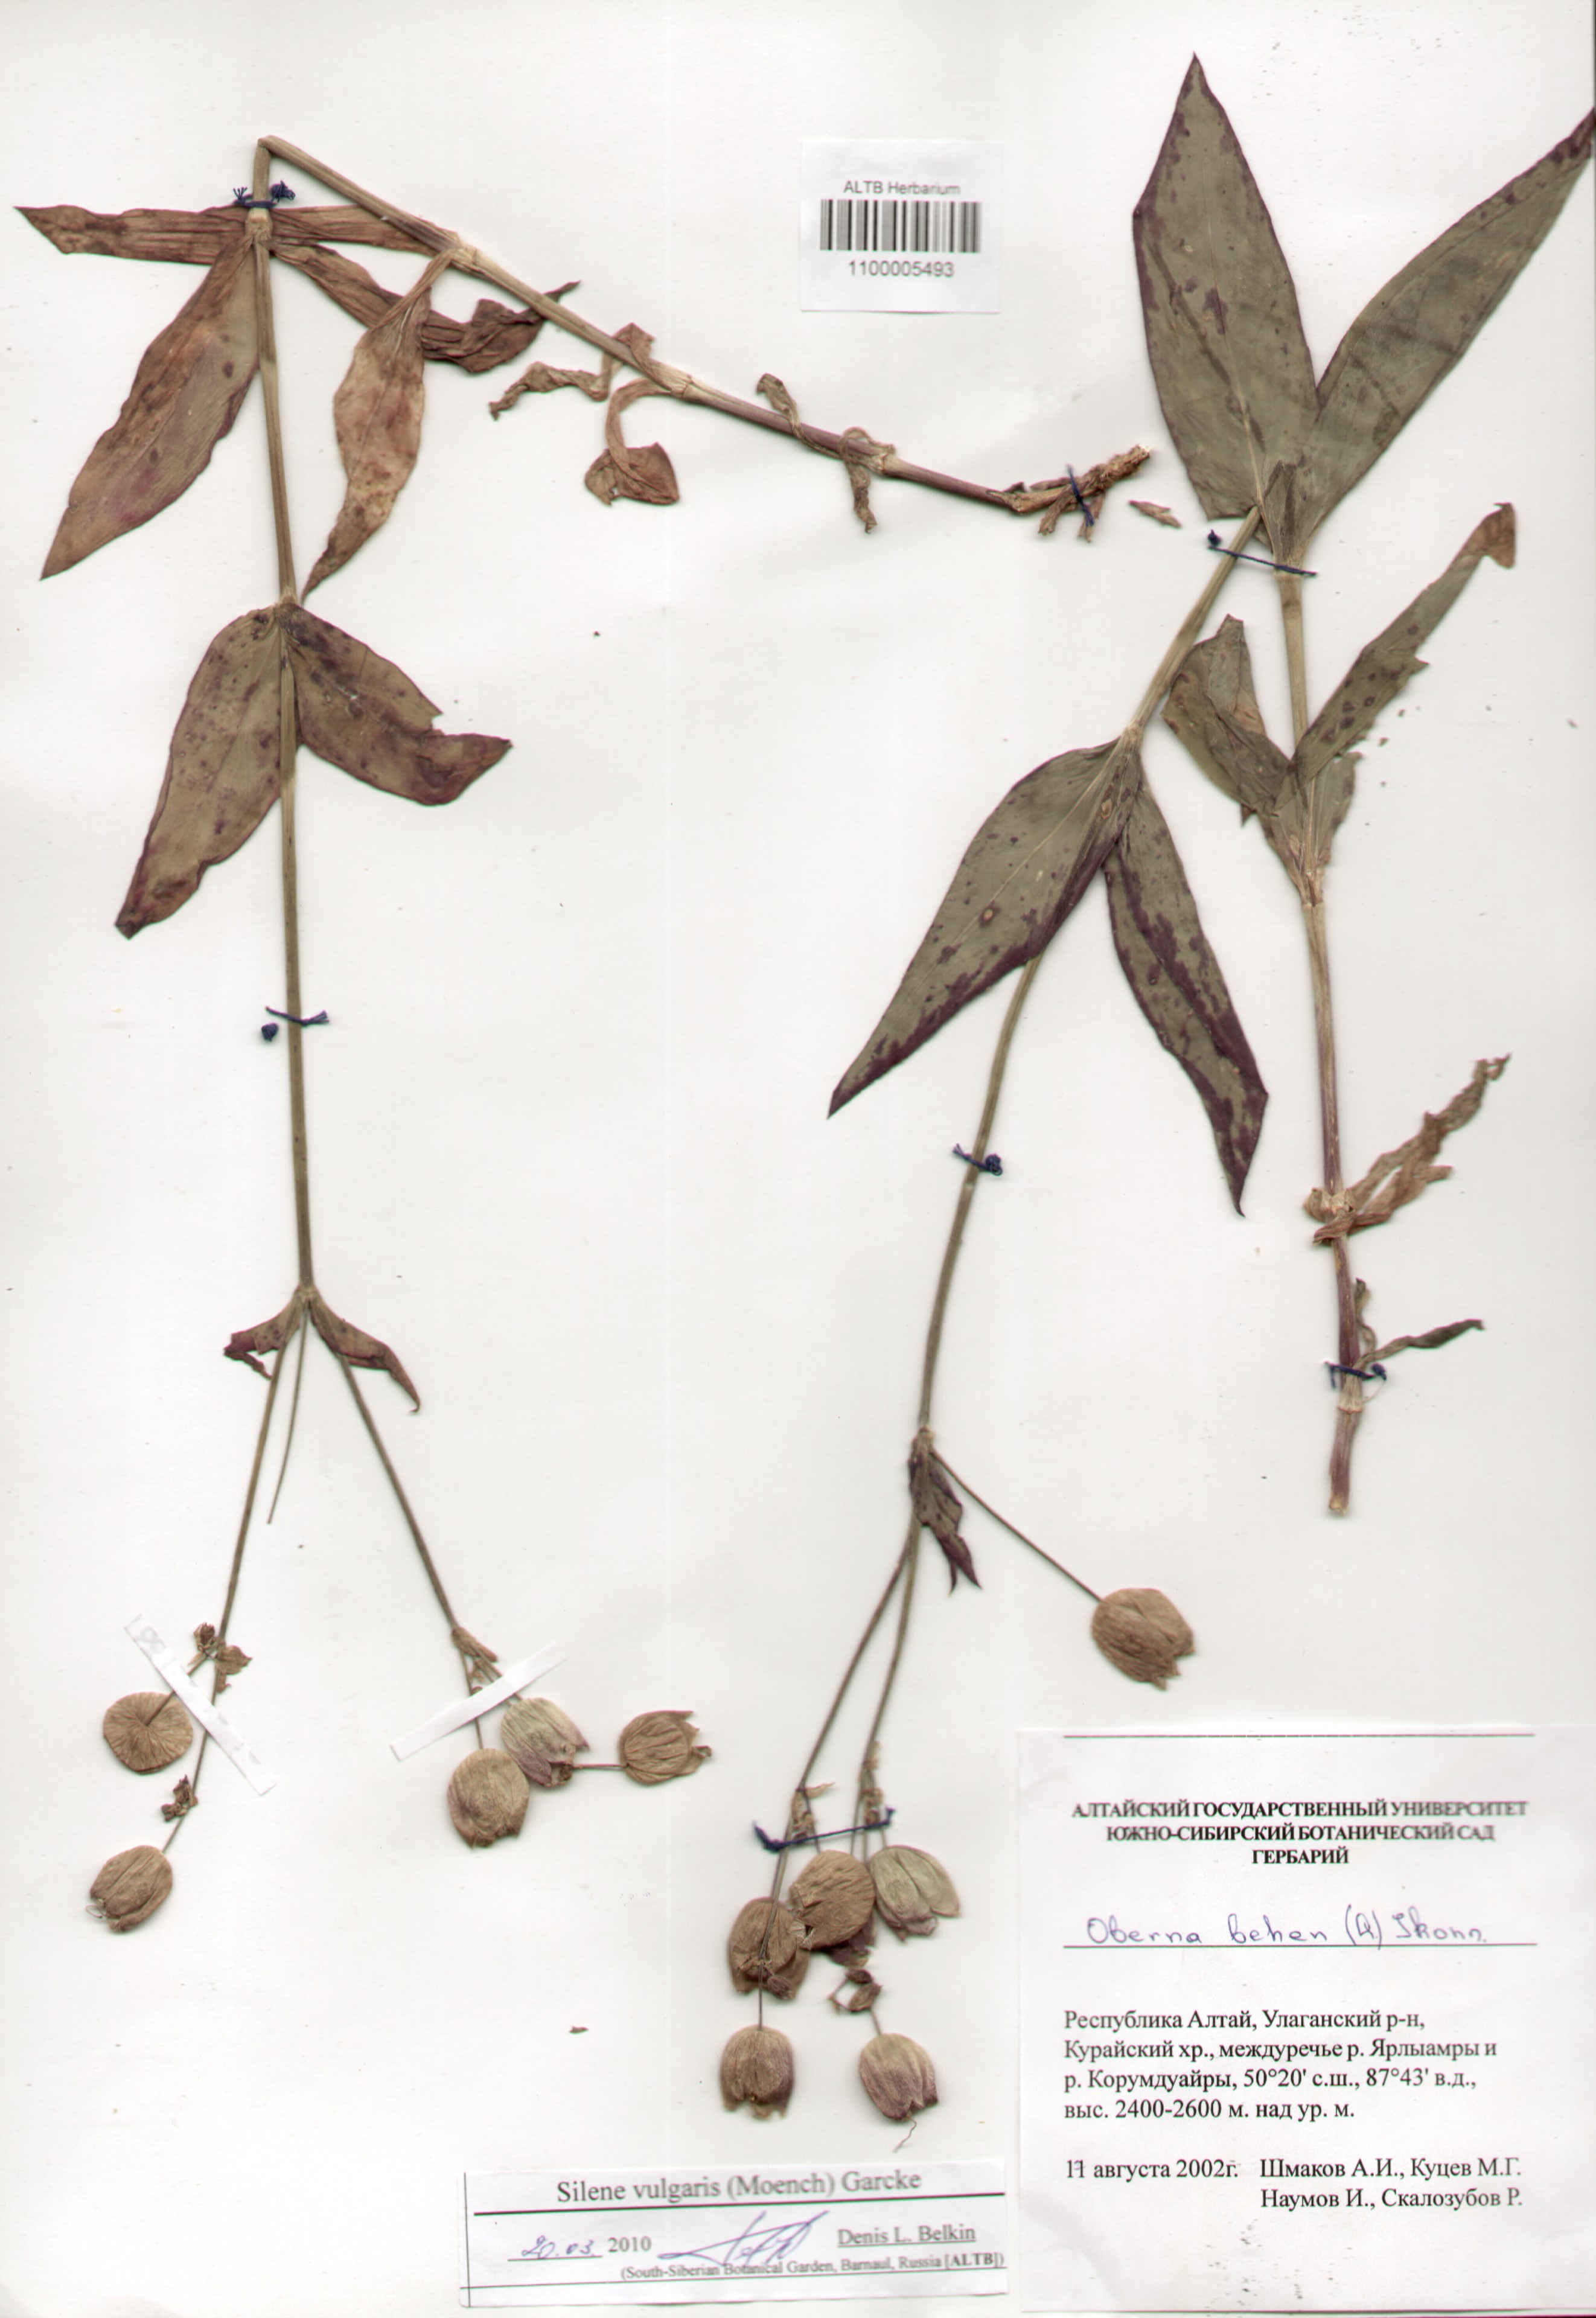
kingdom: Plantae
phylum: Tracheophyta
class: Magnoliopsida
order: Caryophyllales
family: Caryophyllaceae
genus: Silene
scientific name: Silene vulgaris
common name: Bladder campion
